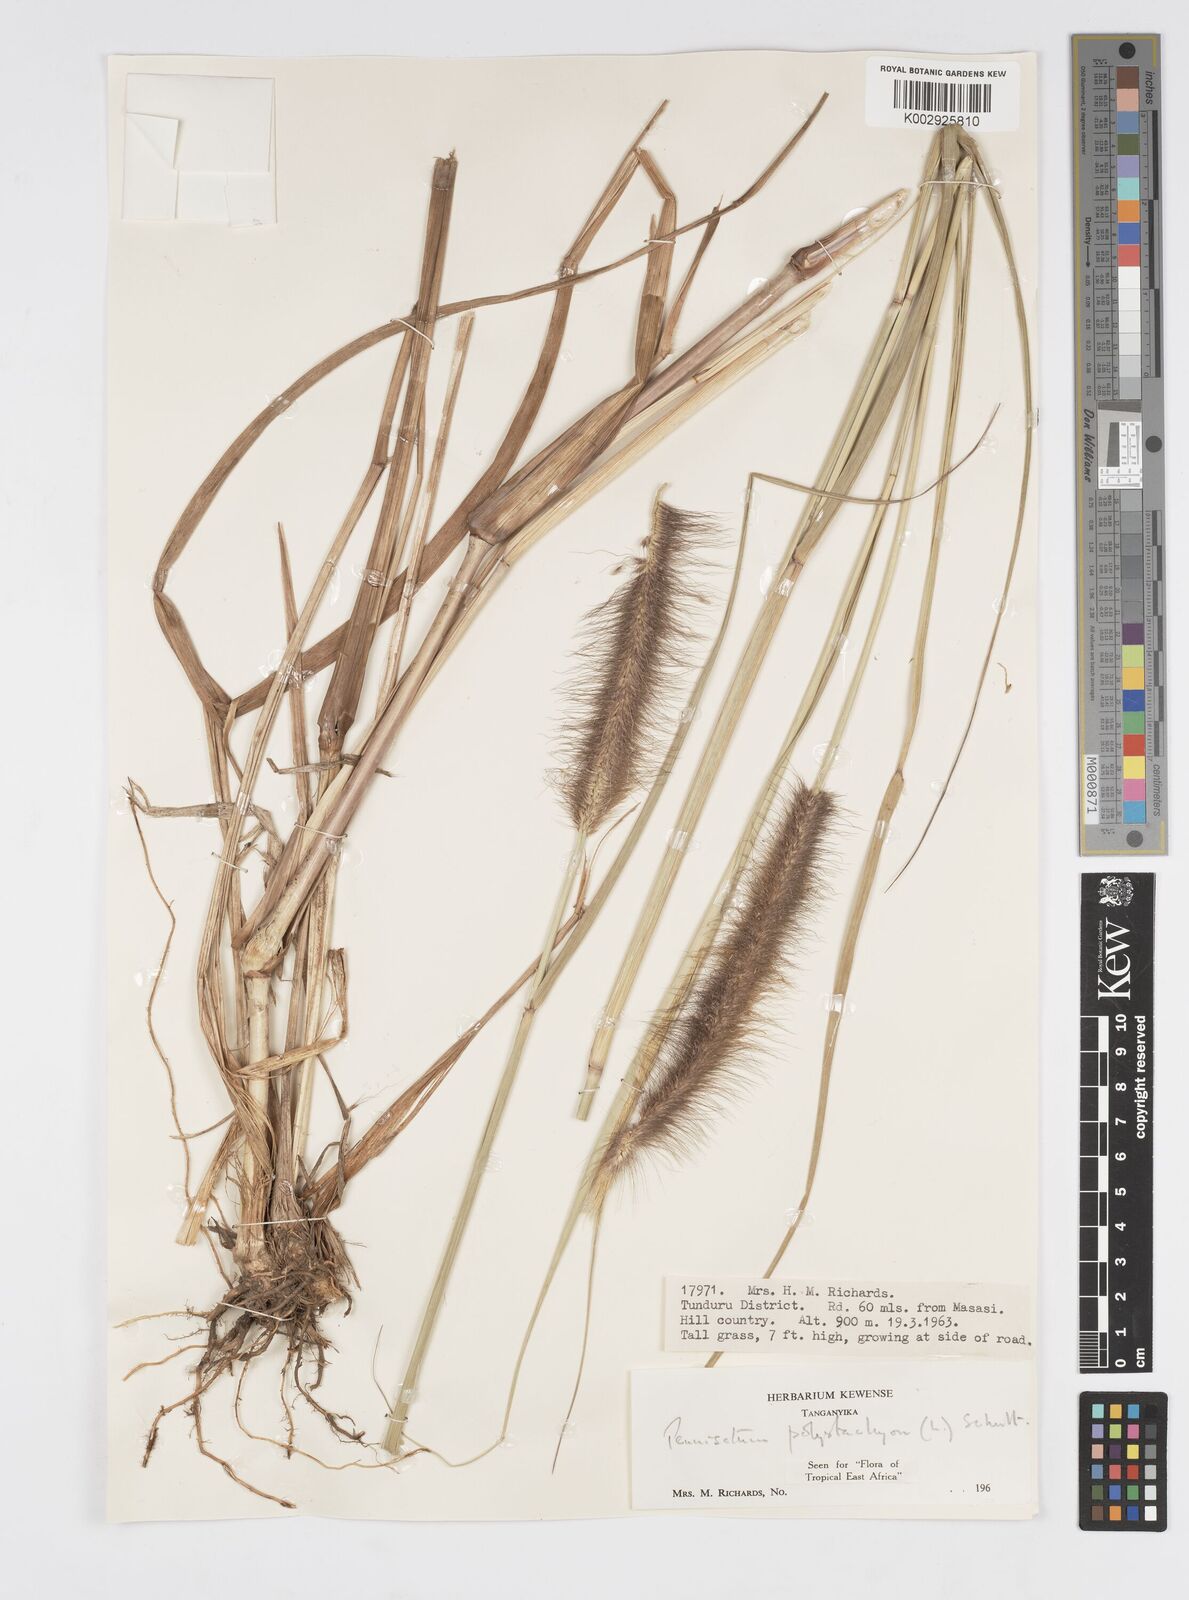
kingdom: Plantae
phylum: Tracheophyta
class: Liliopsida
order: Poales
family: Poaceae
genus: Setaria
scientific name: Setaria parviflora
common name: Knotroot bristle-grass
